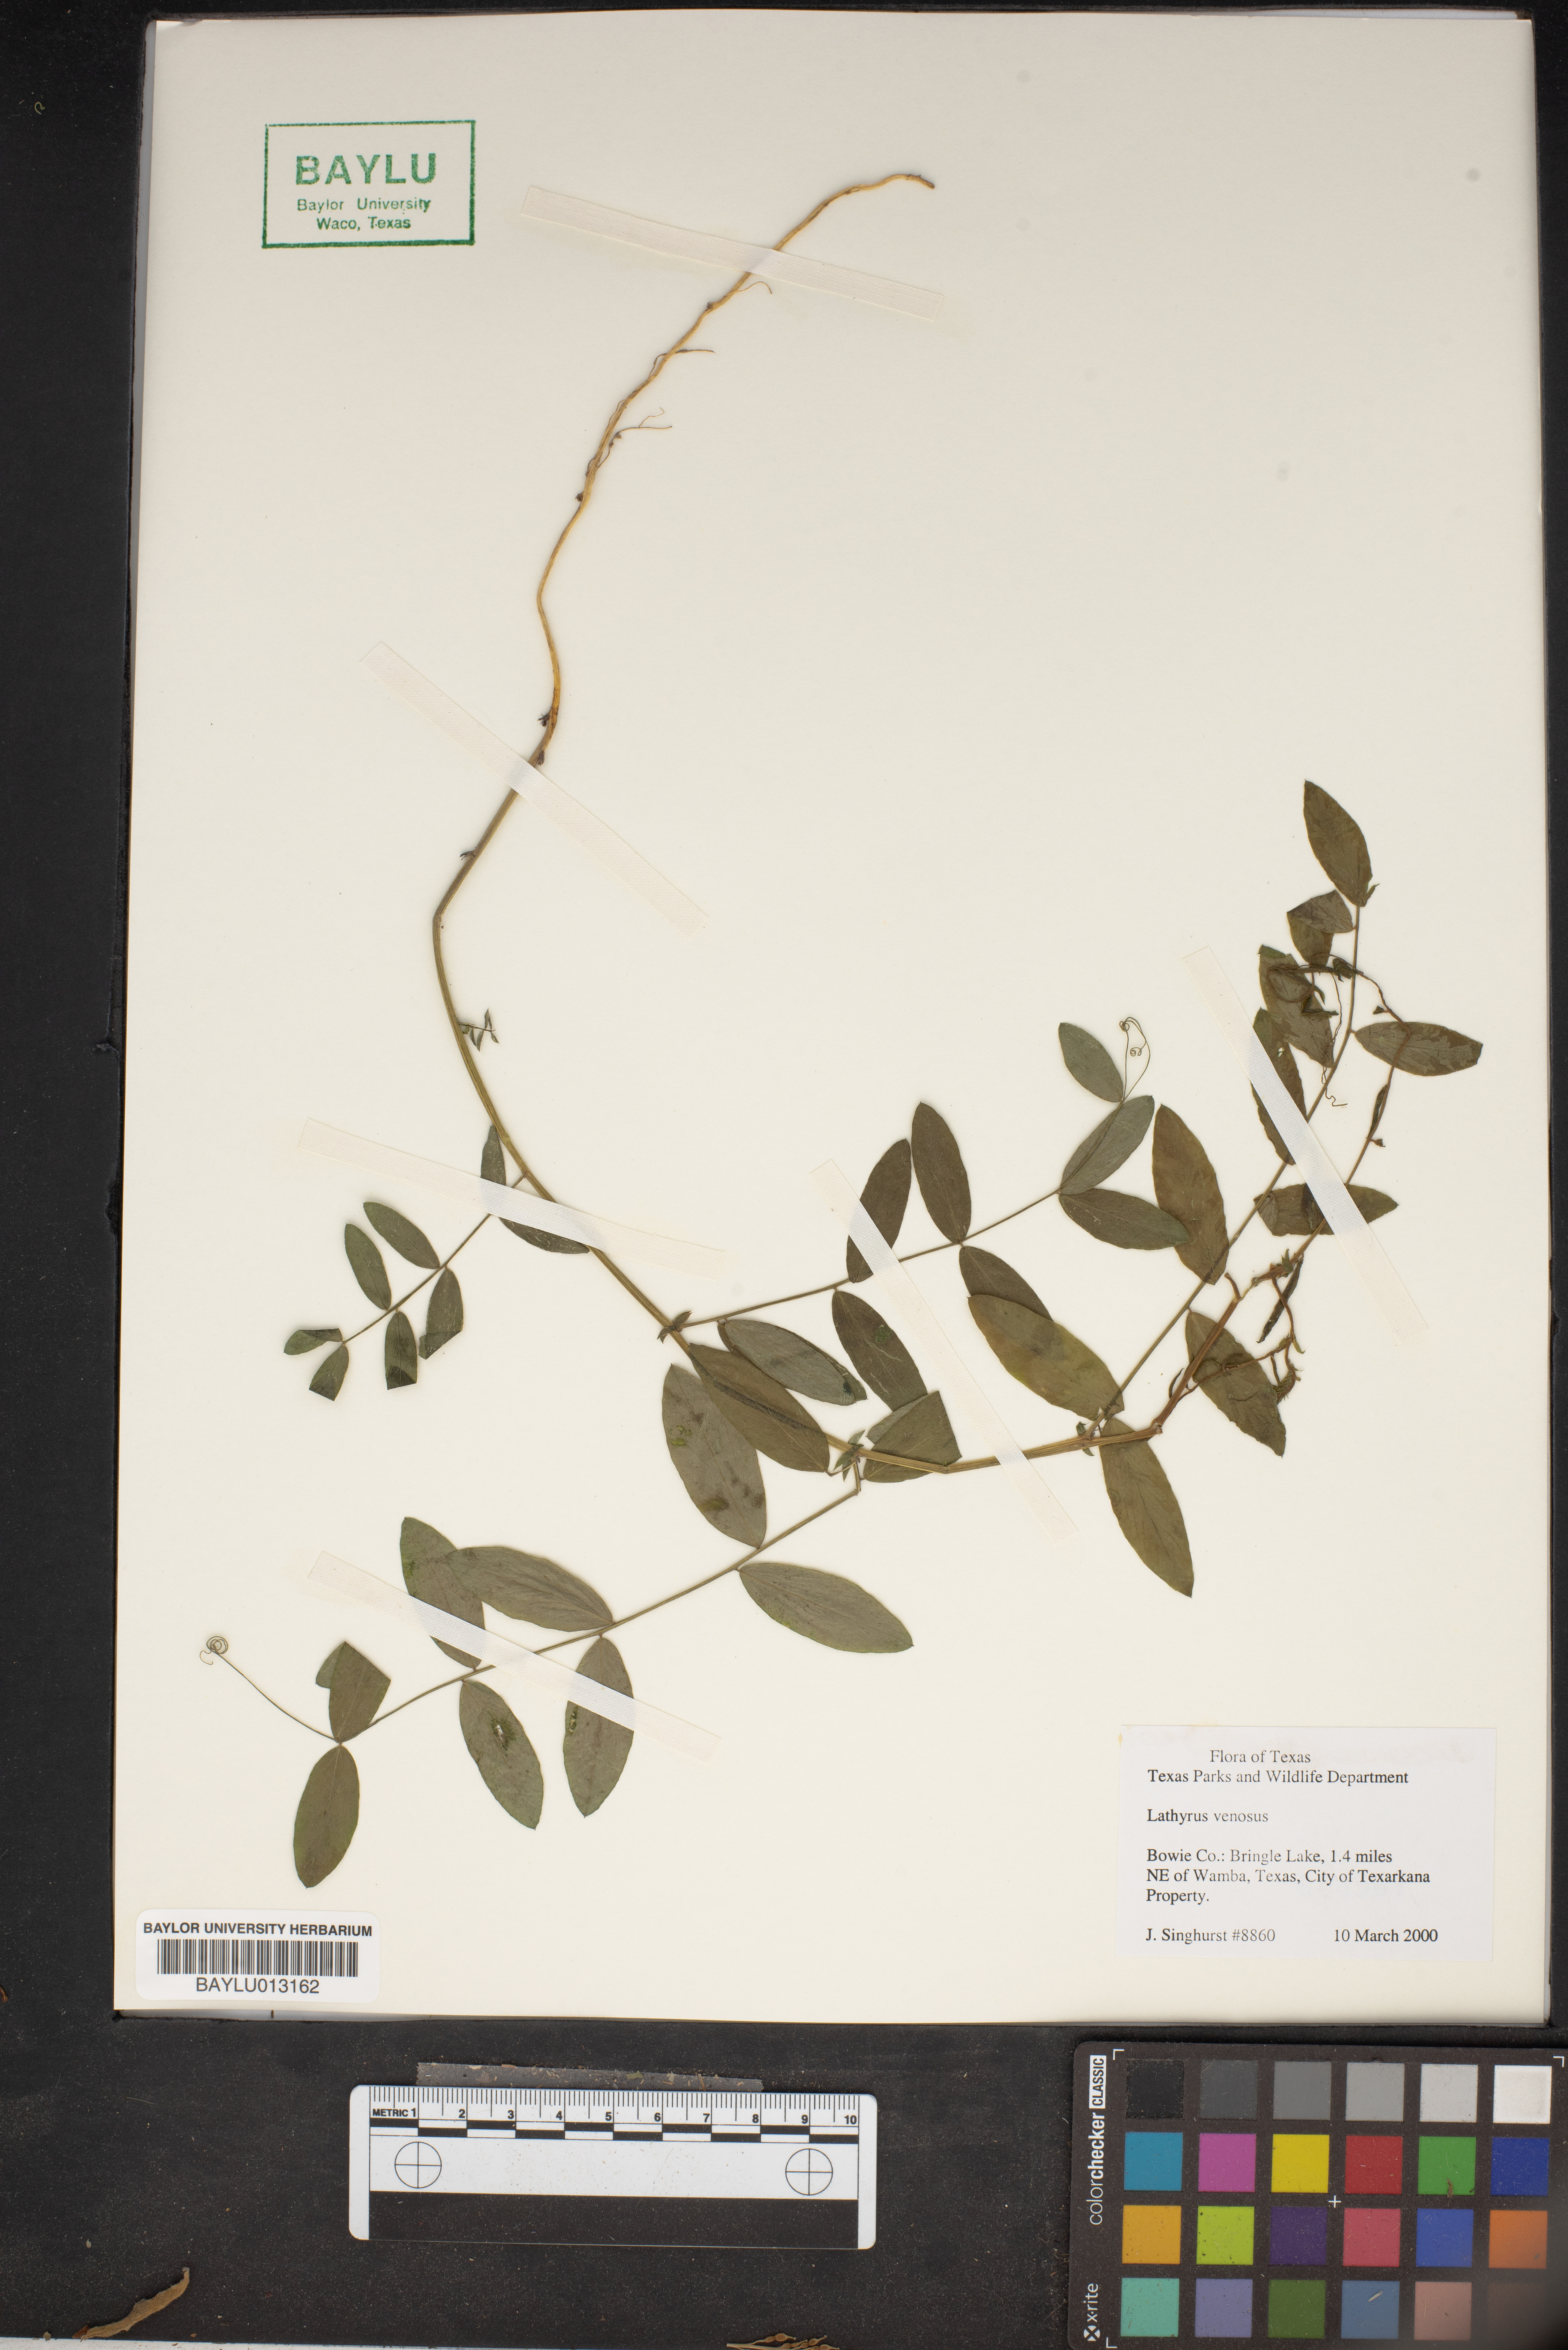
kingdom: Plantae
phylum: Tracheophyta
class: Magnoliopsida
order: Fabales
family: Fabaceae
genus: Lathyrus
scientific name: Lathyrus venosus
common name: Forest-pea
